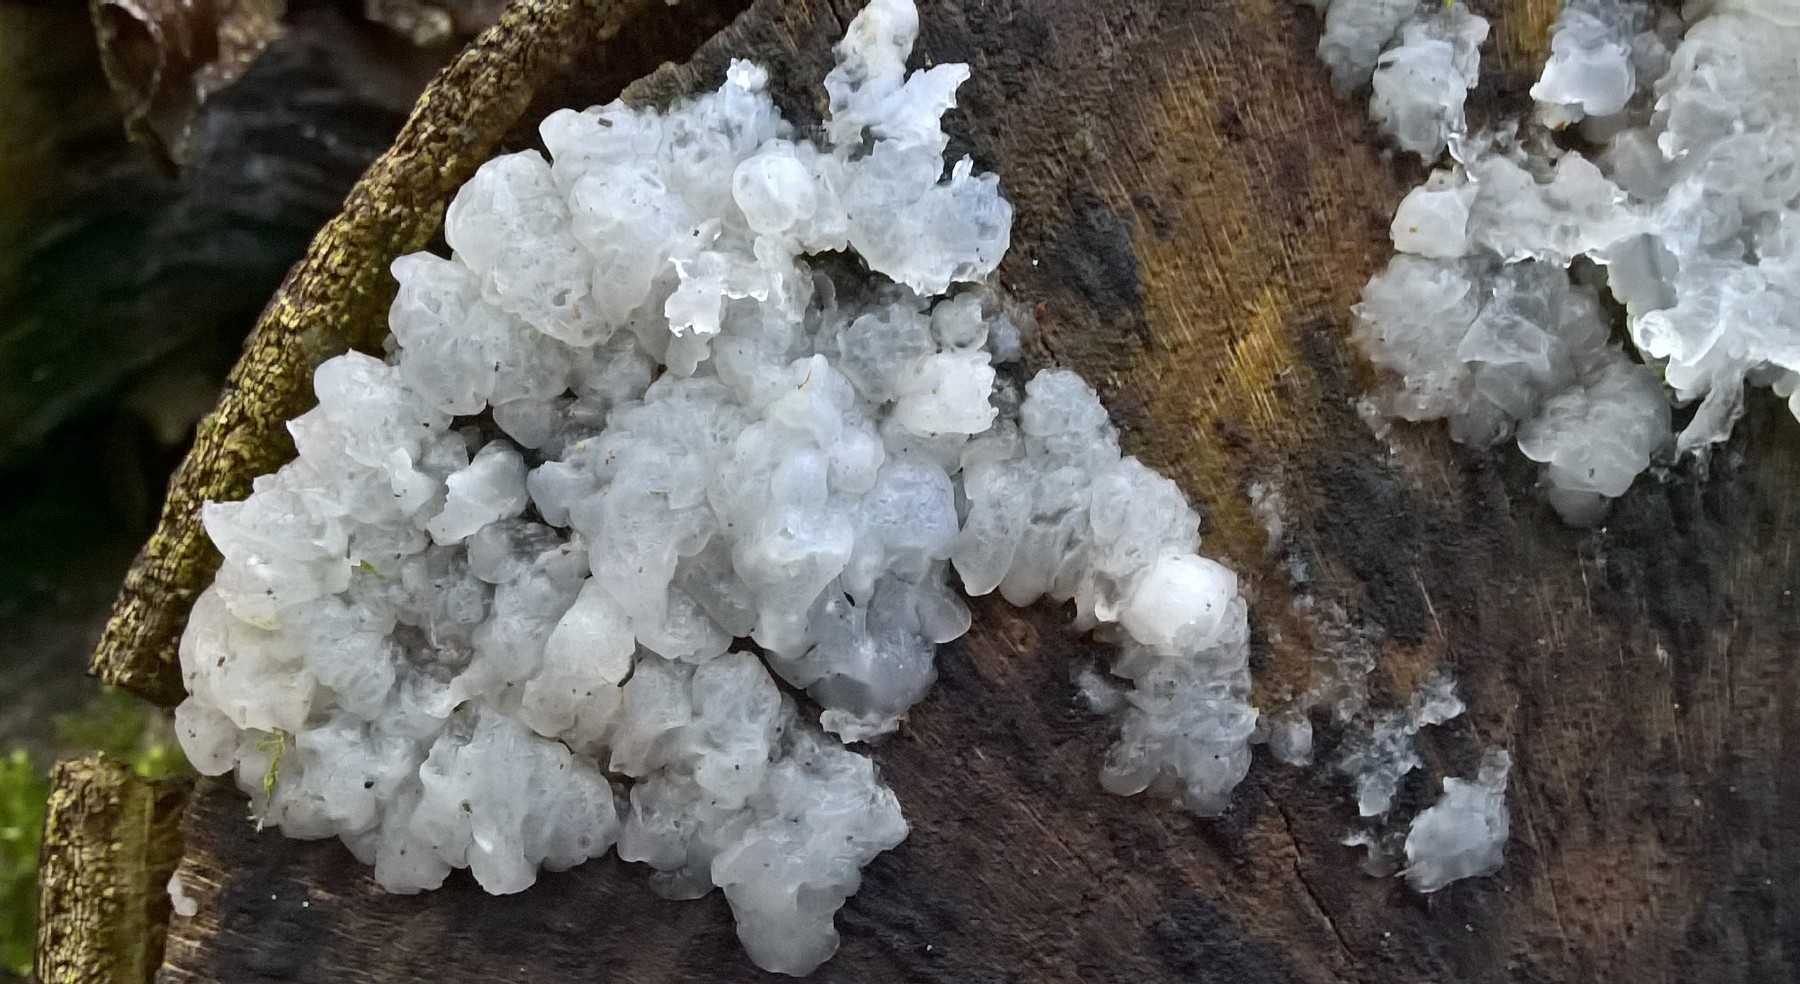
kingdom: Fungi
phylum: Basidiomycota
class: Agaricomycetes
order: Auriculariales
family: Hyaloriaceae
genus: Myxarium
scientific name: Myxarium nucleatum
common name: klar bævretop
